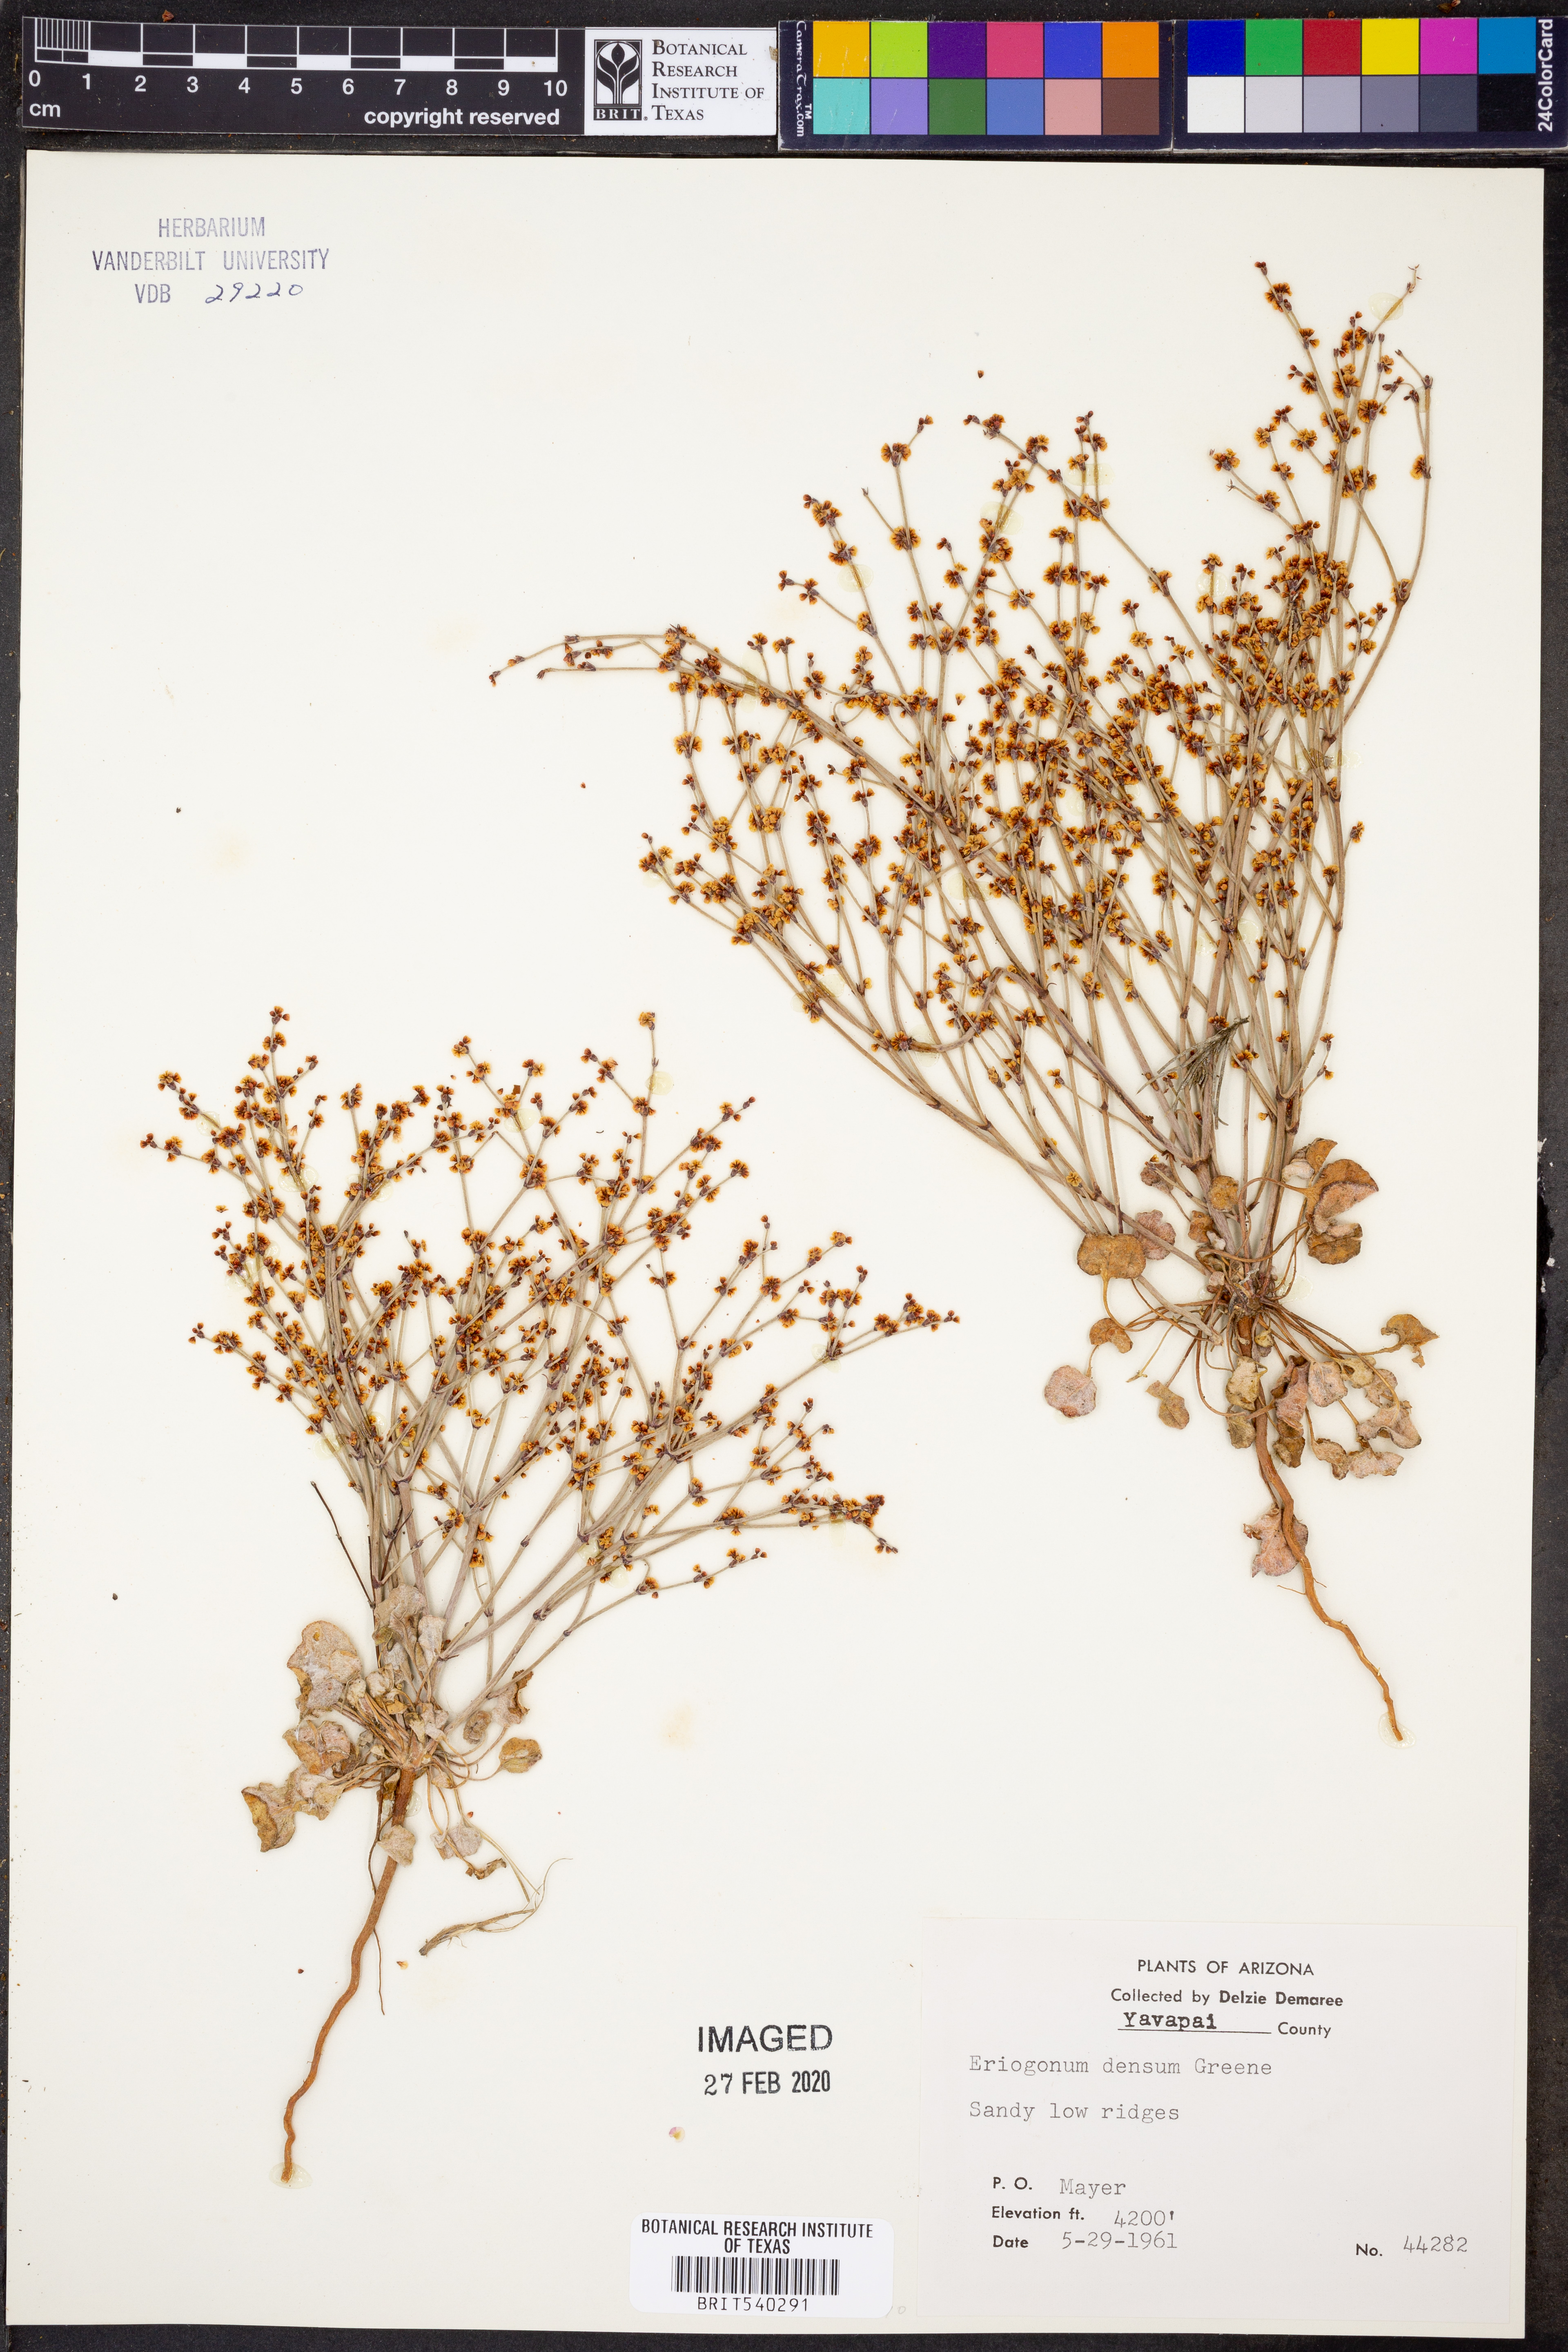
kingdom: Plantae
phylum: Tracheophyta
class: Magnoliopsida
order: Caryophyllales
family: Polygonaceae
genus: Eriogonum
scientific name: Eriogonum polycladon
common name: Sorrel wild buckwheat
